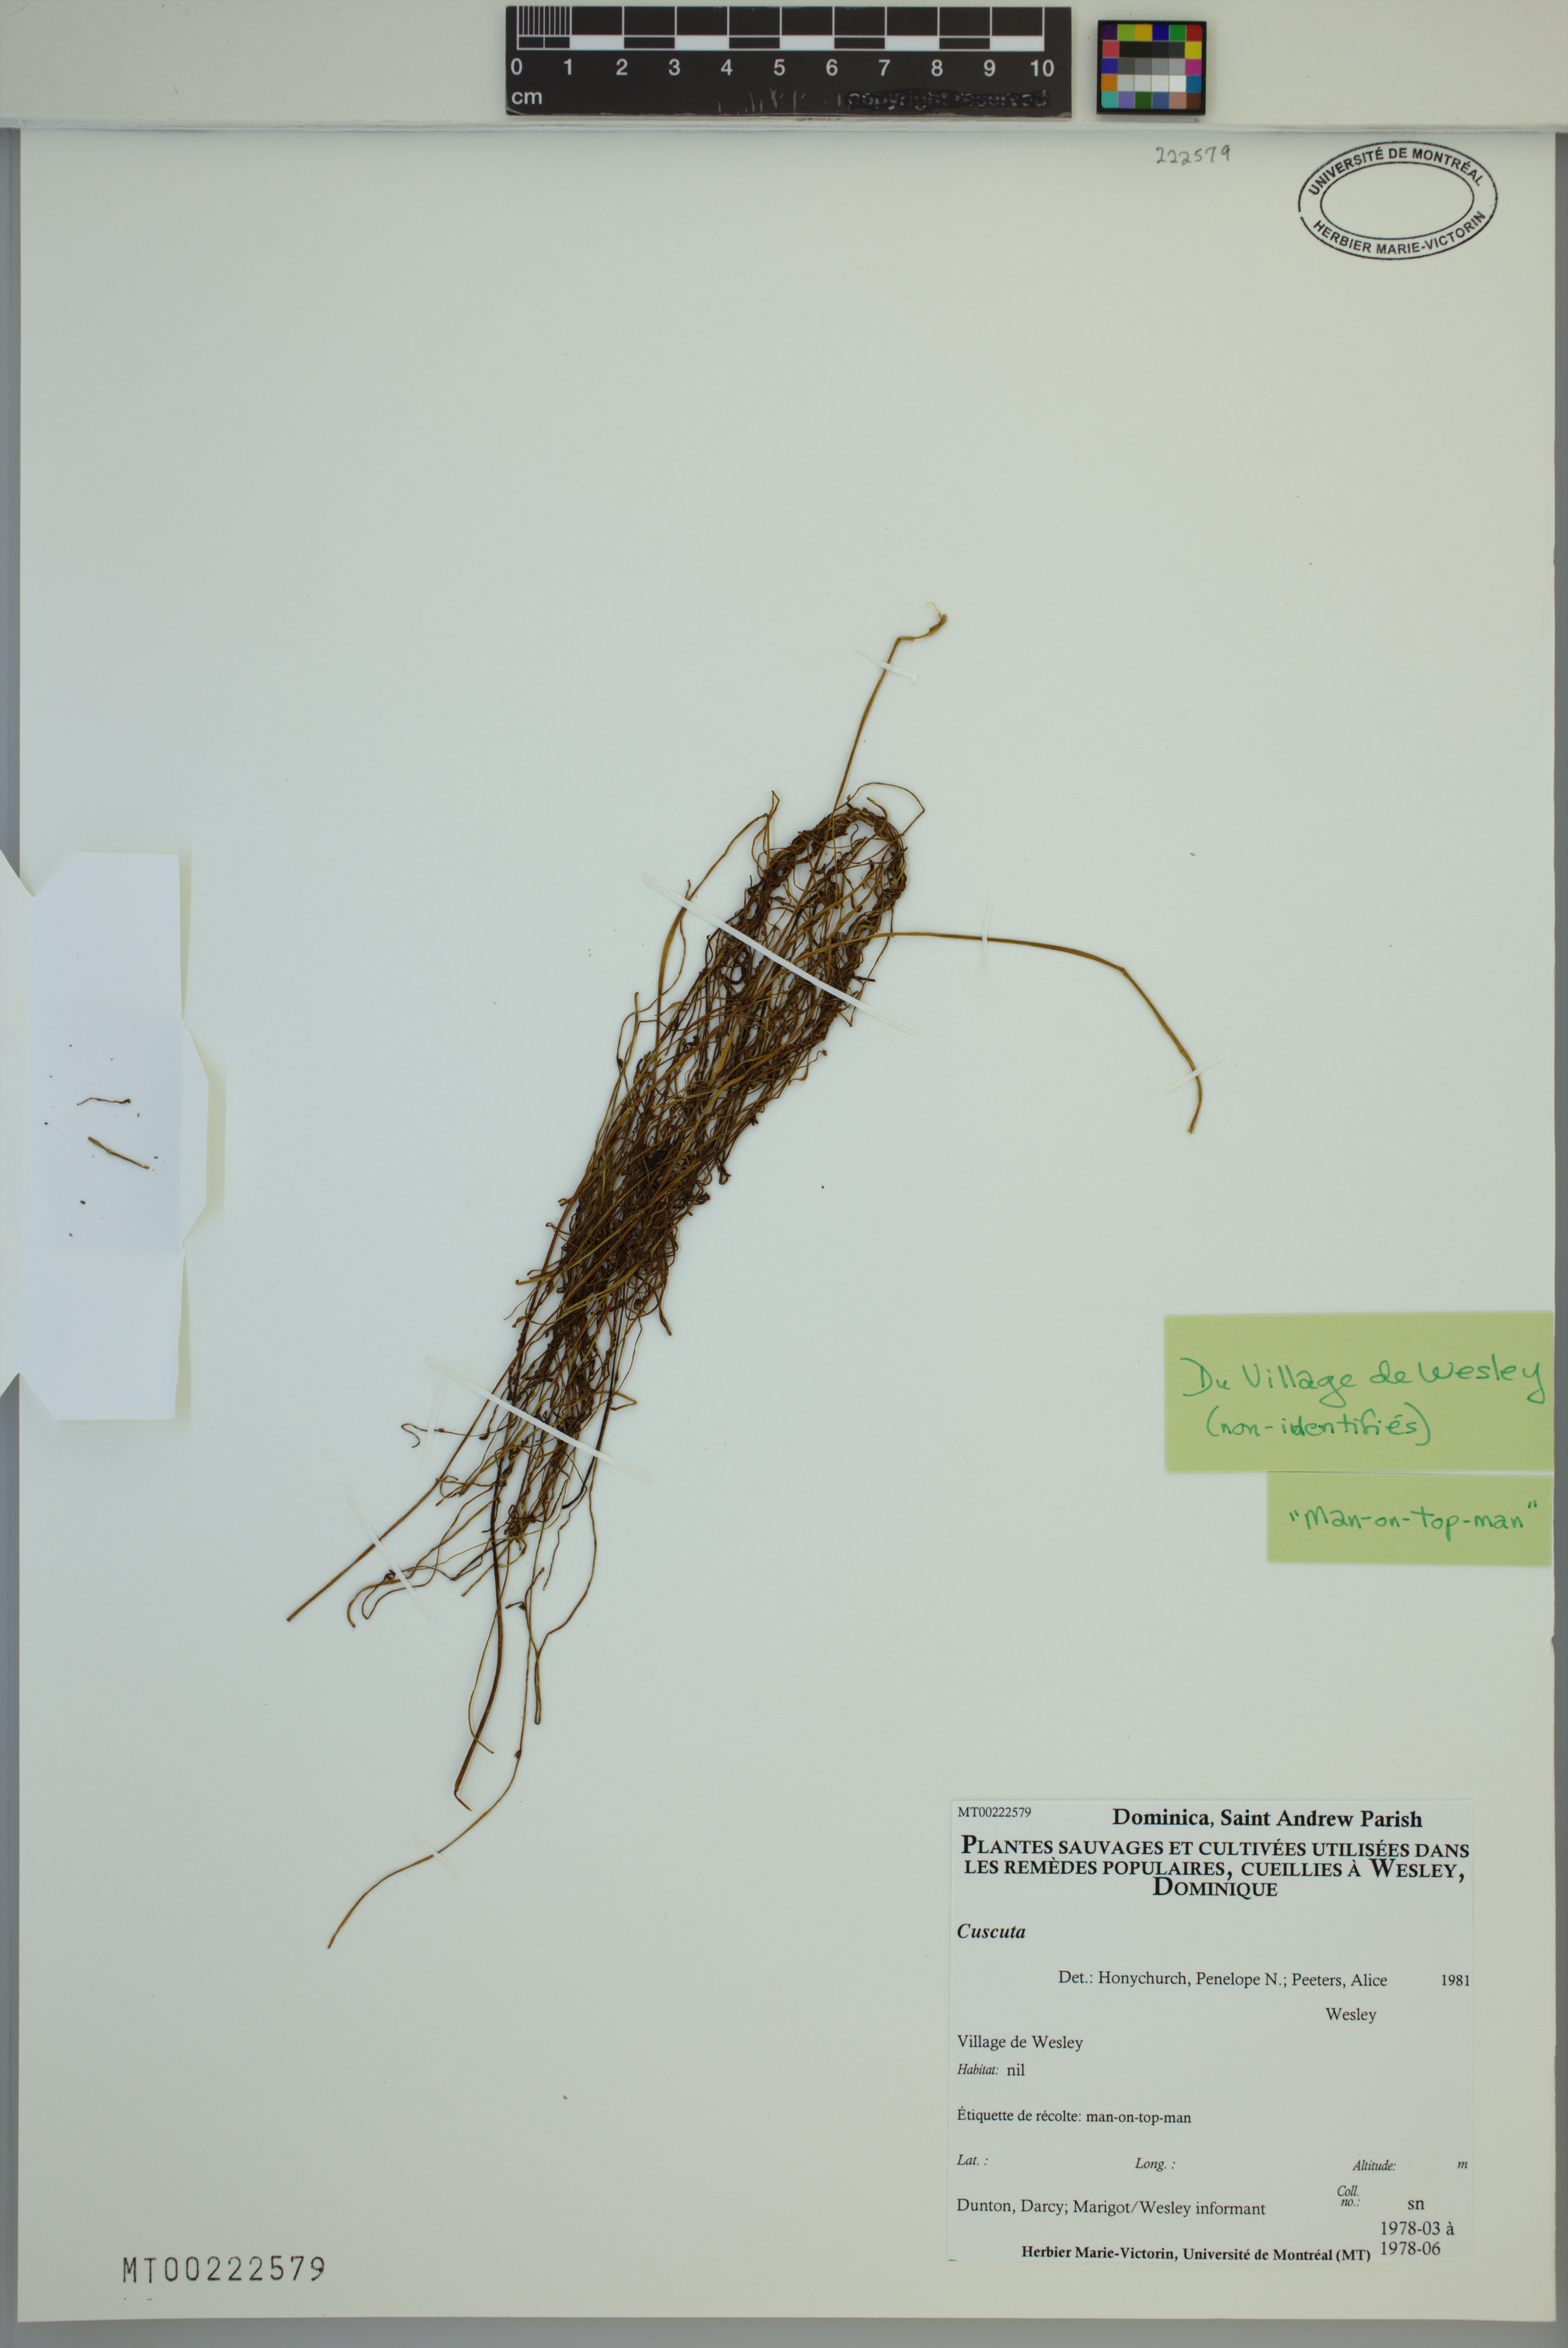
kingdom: Plantae
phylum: Tracheophyta
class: Magnoliopsida
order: Solanales
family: Convolvulaceae
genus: Cuscuta
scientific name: Cuscuta
